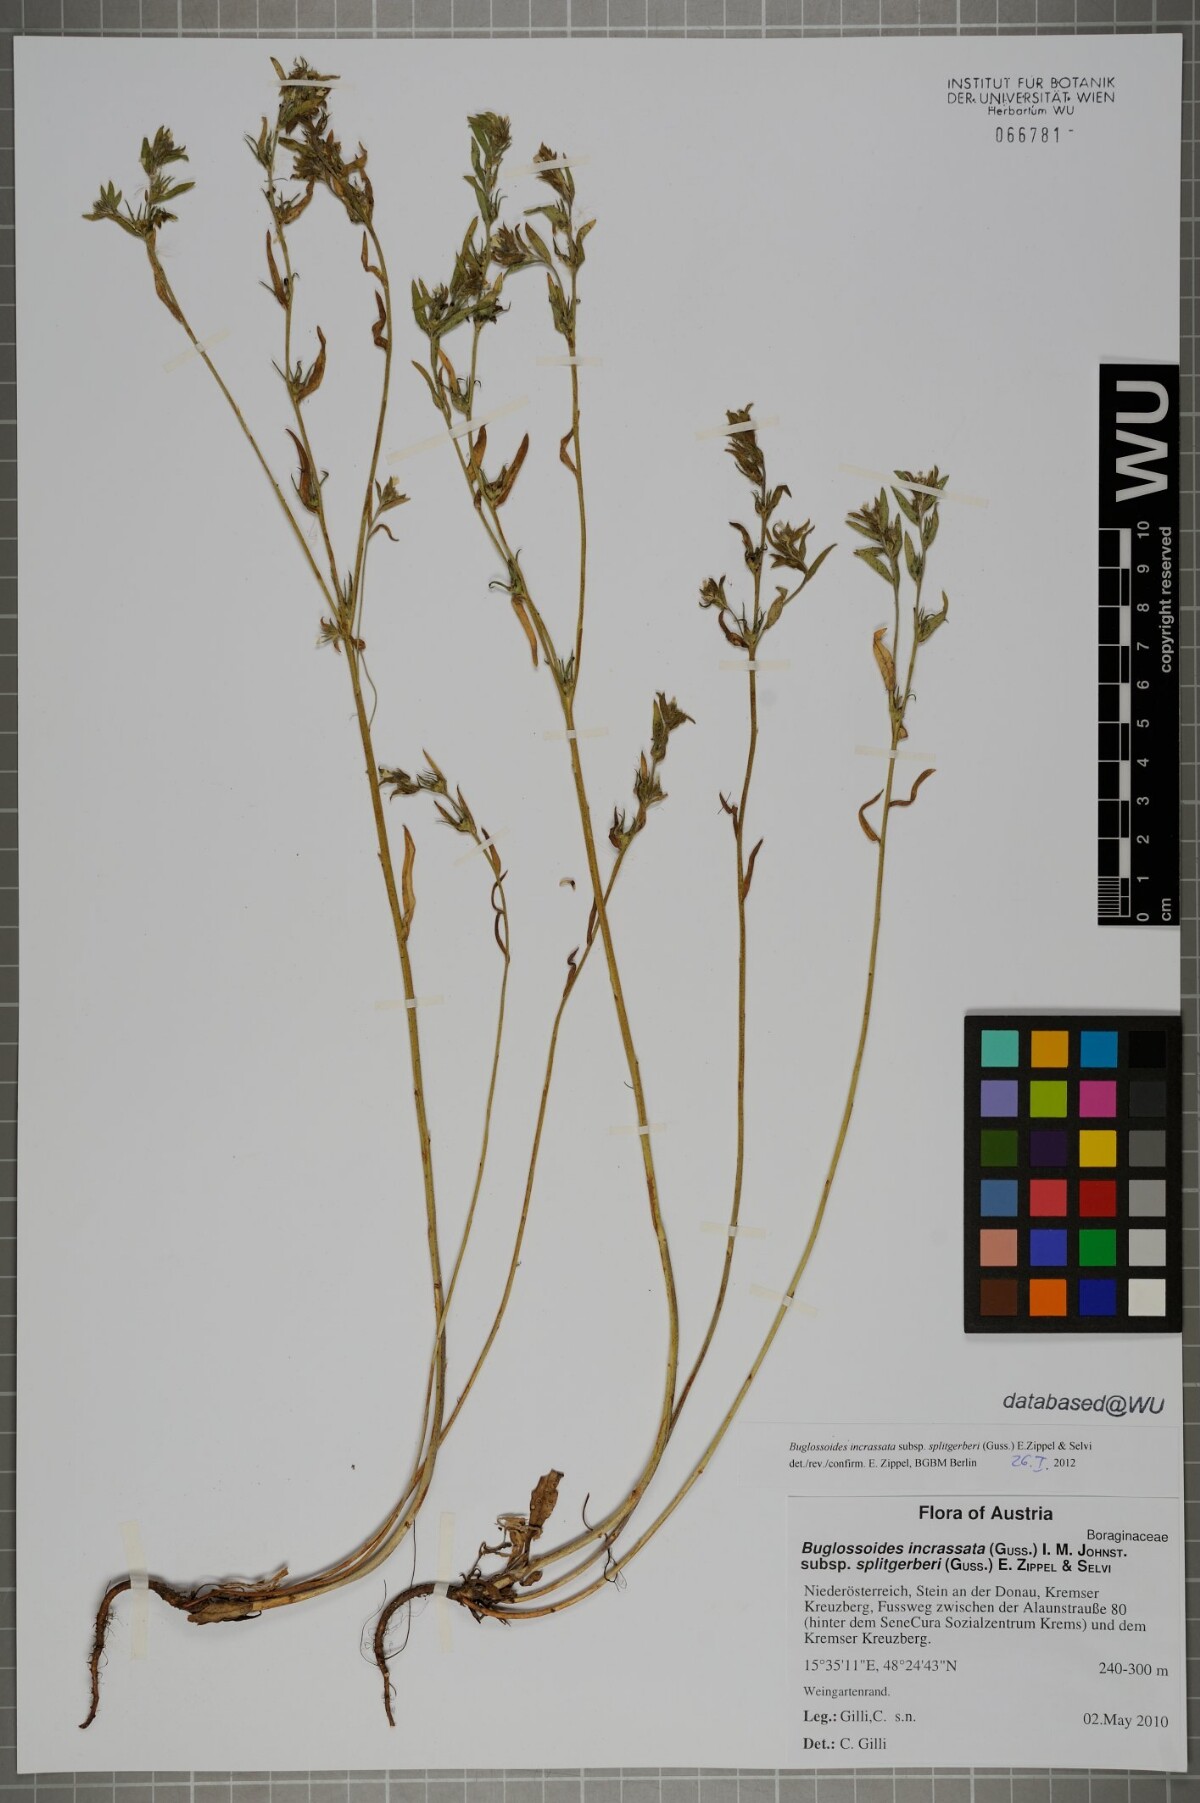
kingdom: Plantae
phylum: Tracheophyta
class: Magnoliopsida
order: Boraginales
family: Boraginaceae
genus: Buglossoides
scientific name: Buglossoides incrassata
